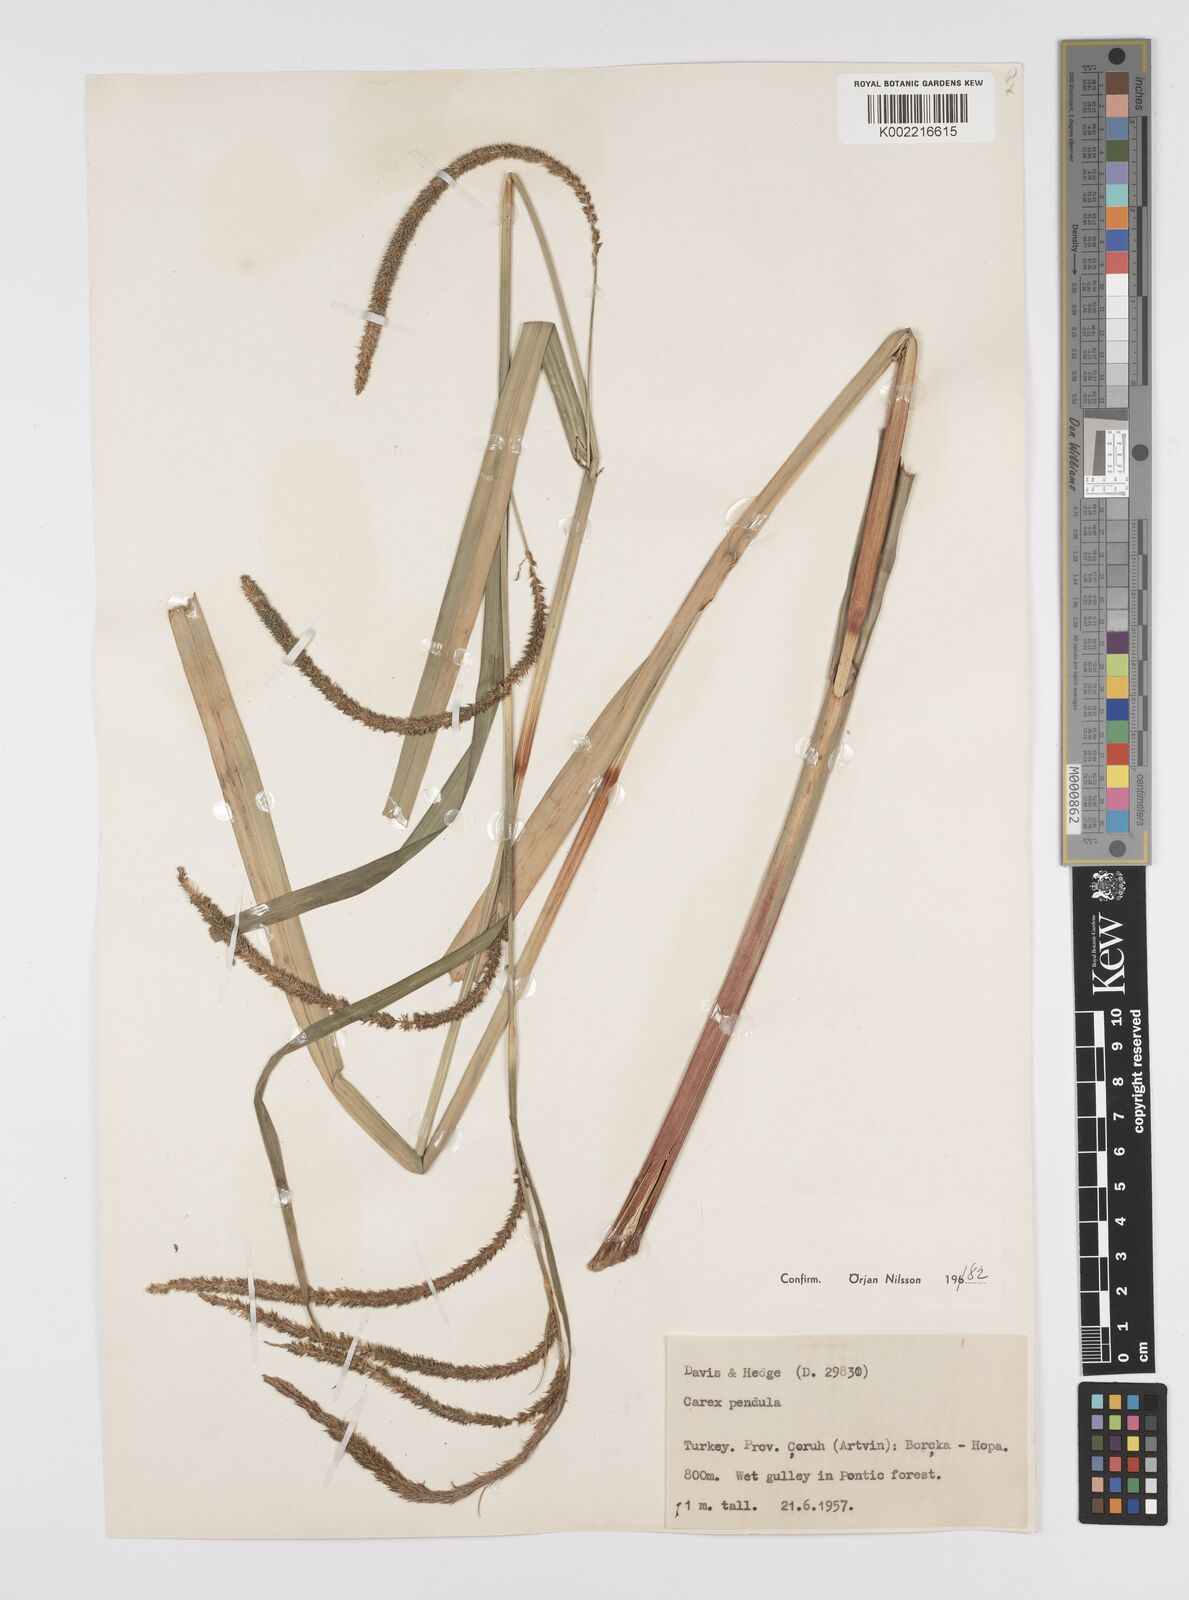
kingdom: Plantae
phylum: Tracheophyta
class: Liliopsida
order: Poales
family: Cyperaceae
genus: Carex
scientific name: Carex pendula
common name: Pendulous sedge
